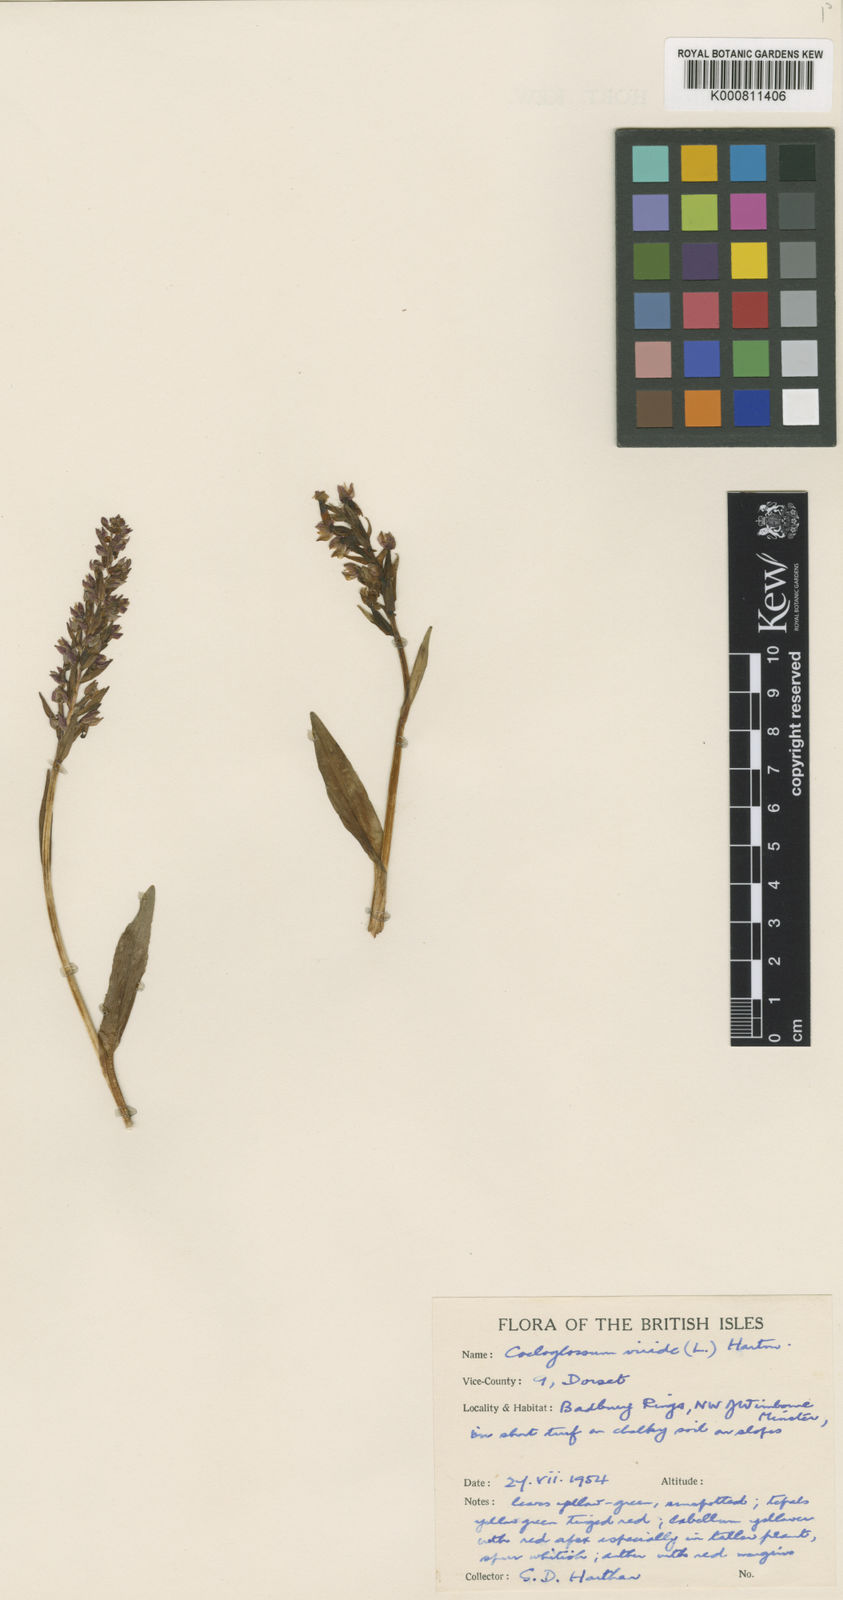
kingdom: Plantae
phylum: Tracheophyta
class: Liliopsida
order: Asparagales
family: Orchidaceae
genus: Dactylorhiza
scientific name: Dactylorhiza viridis
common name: Longbract frog orchid
